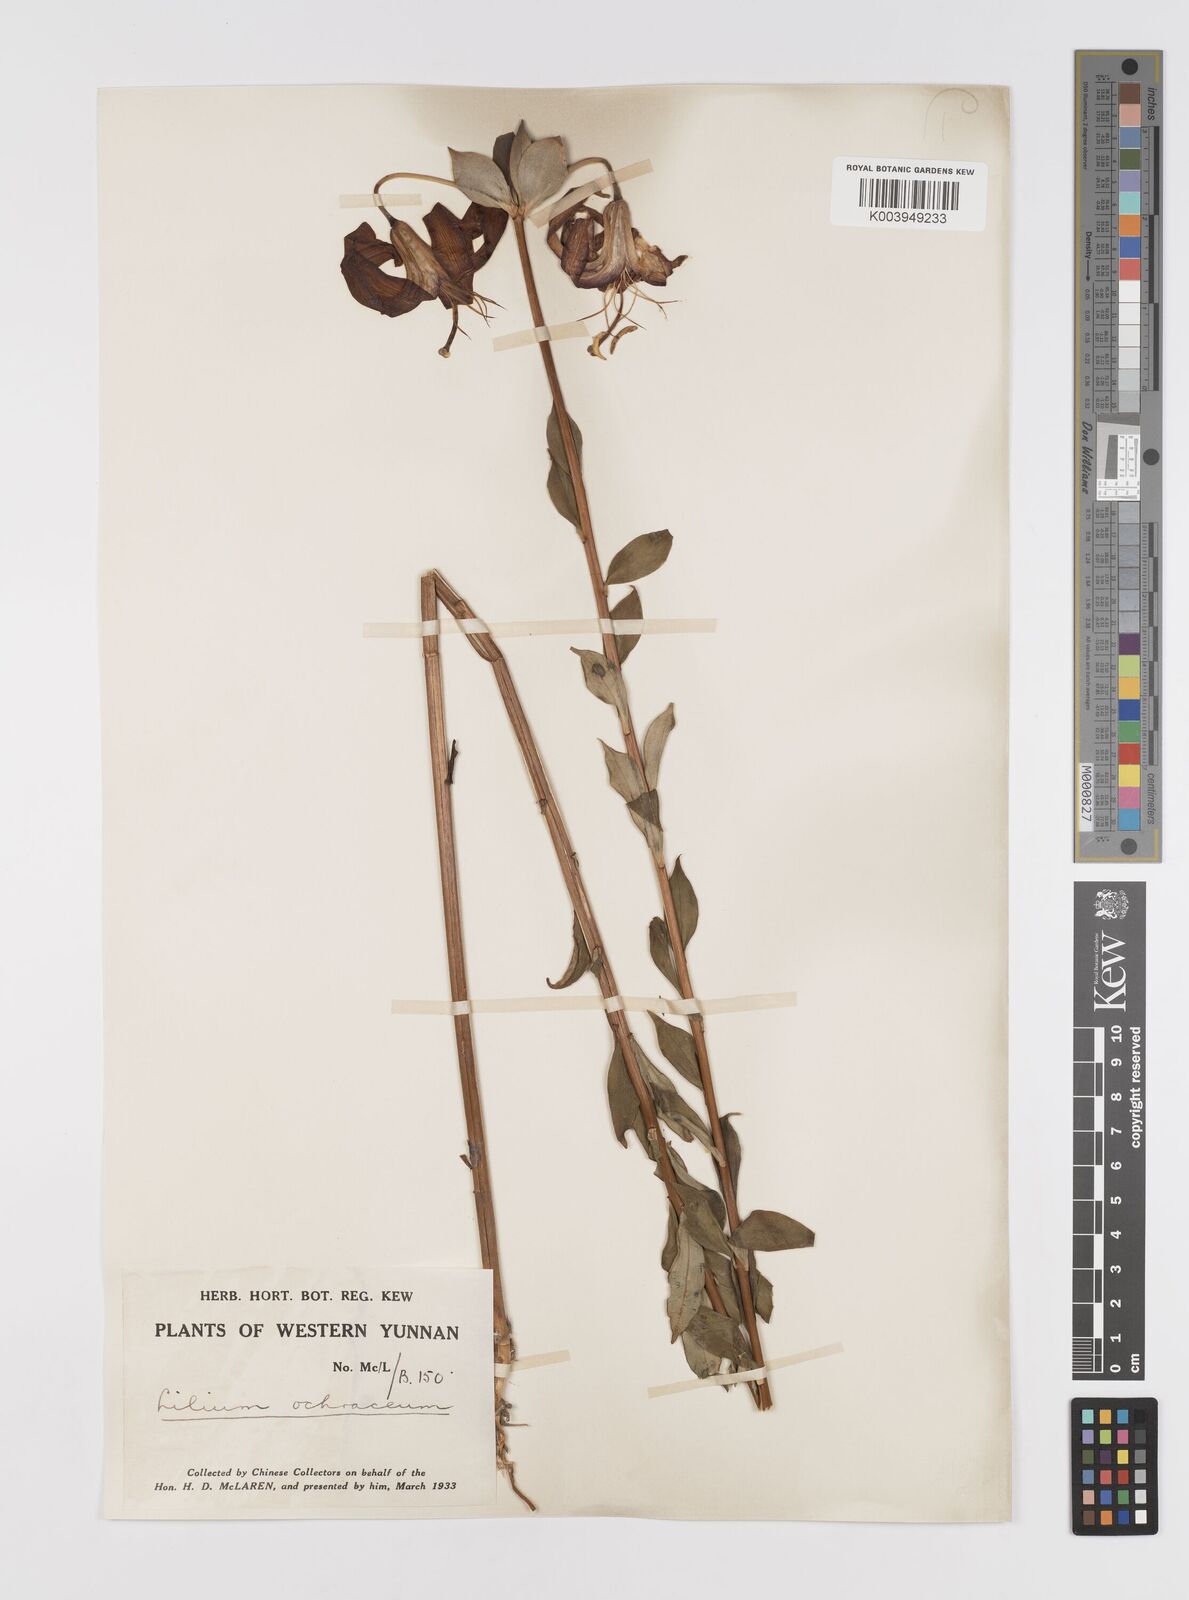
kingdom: Plantae
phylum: Tracheophyta
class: Liliopsida
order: Liliales
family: Liliaceae
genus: Lilium
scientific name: Lilium primulinum
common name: Ochre lily
